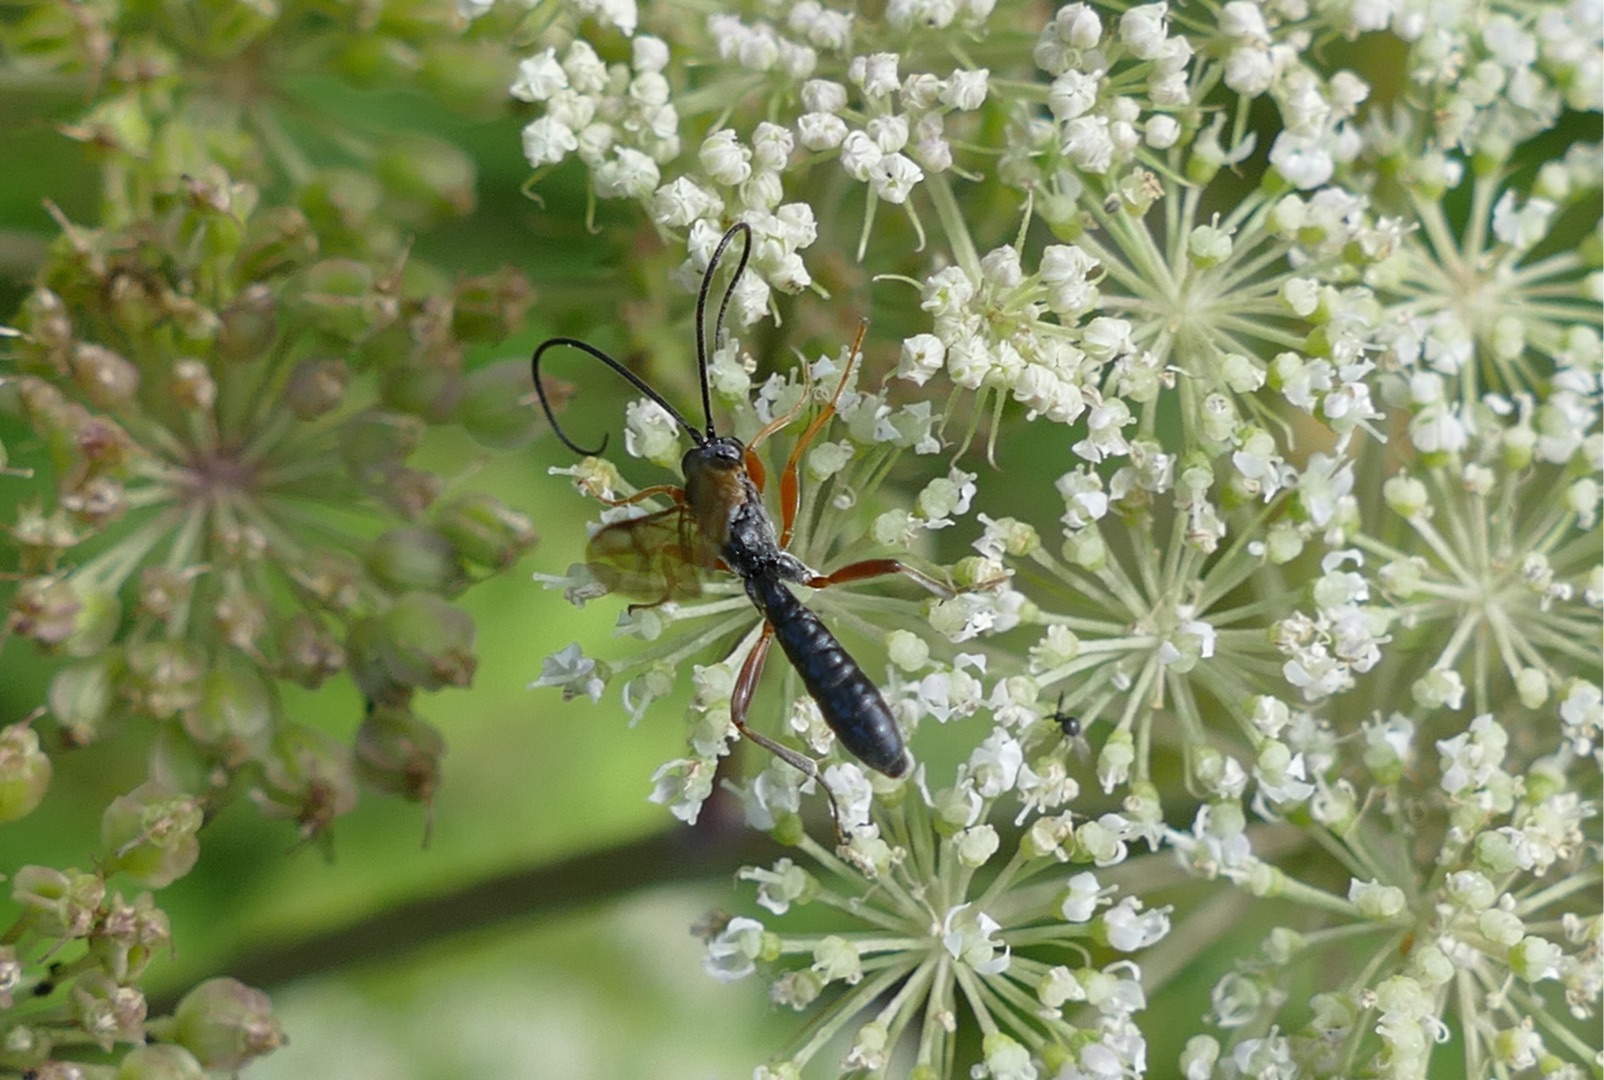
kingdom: Animalia
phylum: Arthropoda
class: Insecta
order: Hymenoptera
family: Ichneumonidae
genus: Dyspetes
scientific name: Dyspetes luteomarginatus
